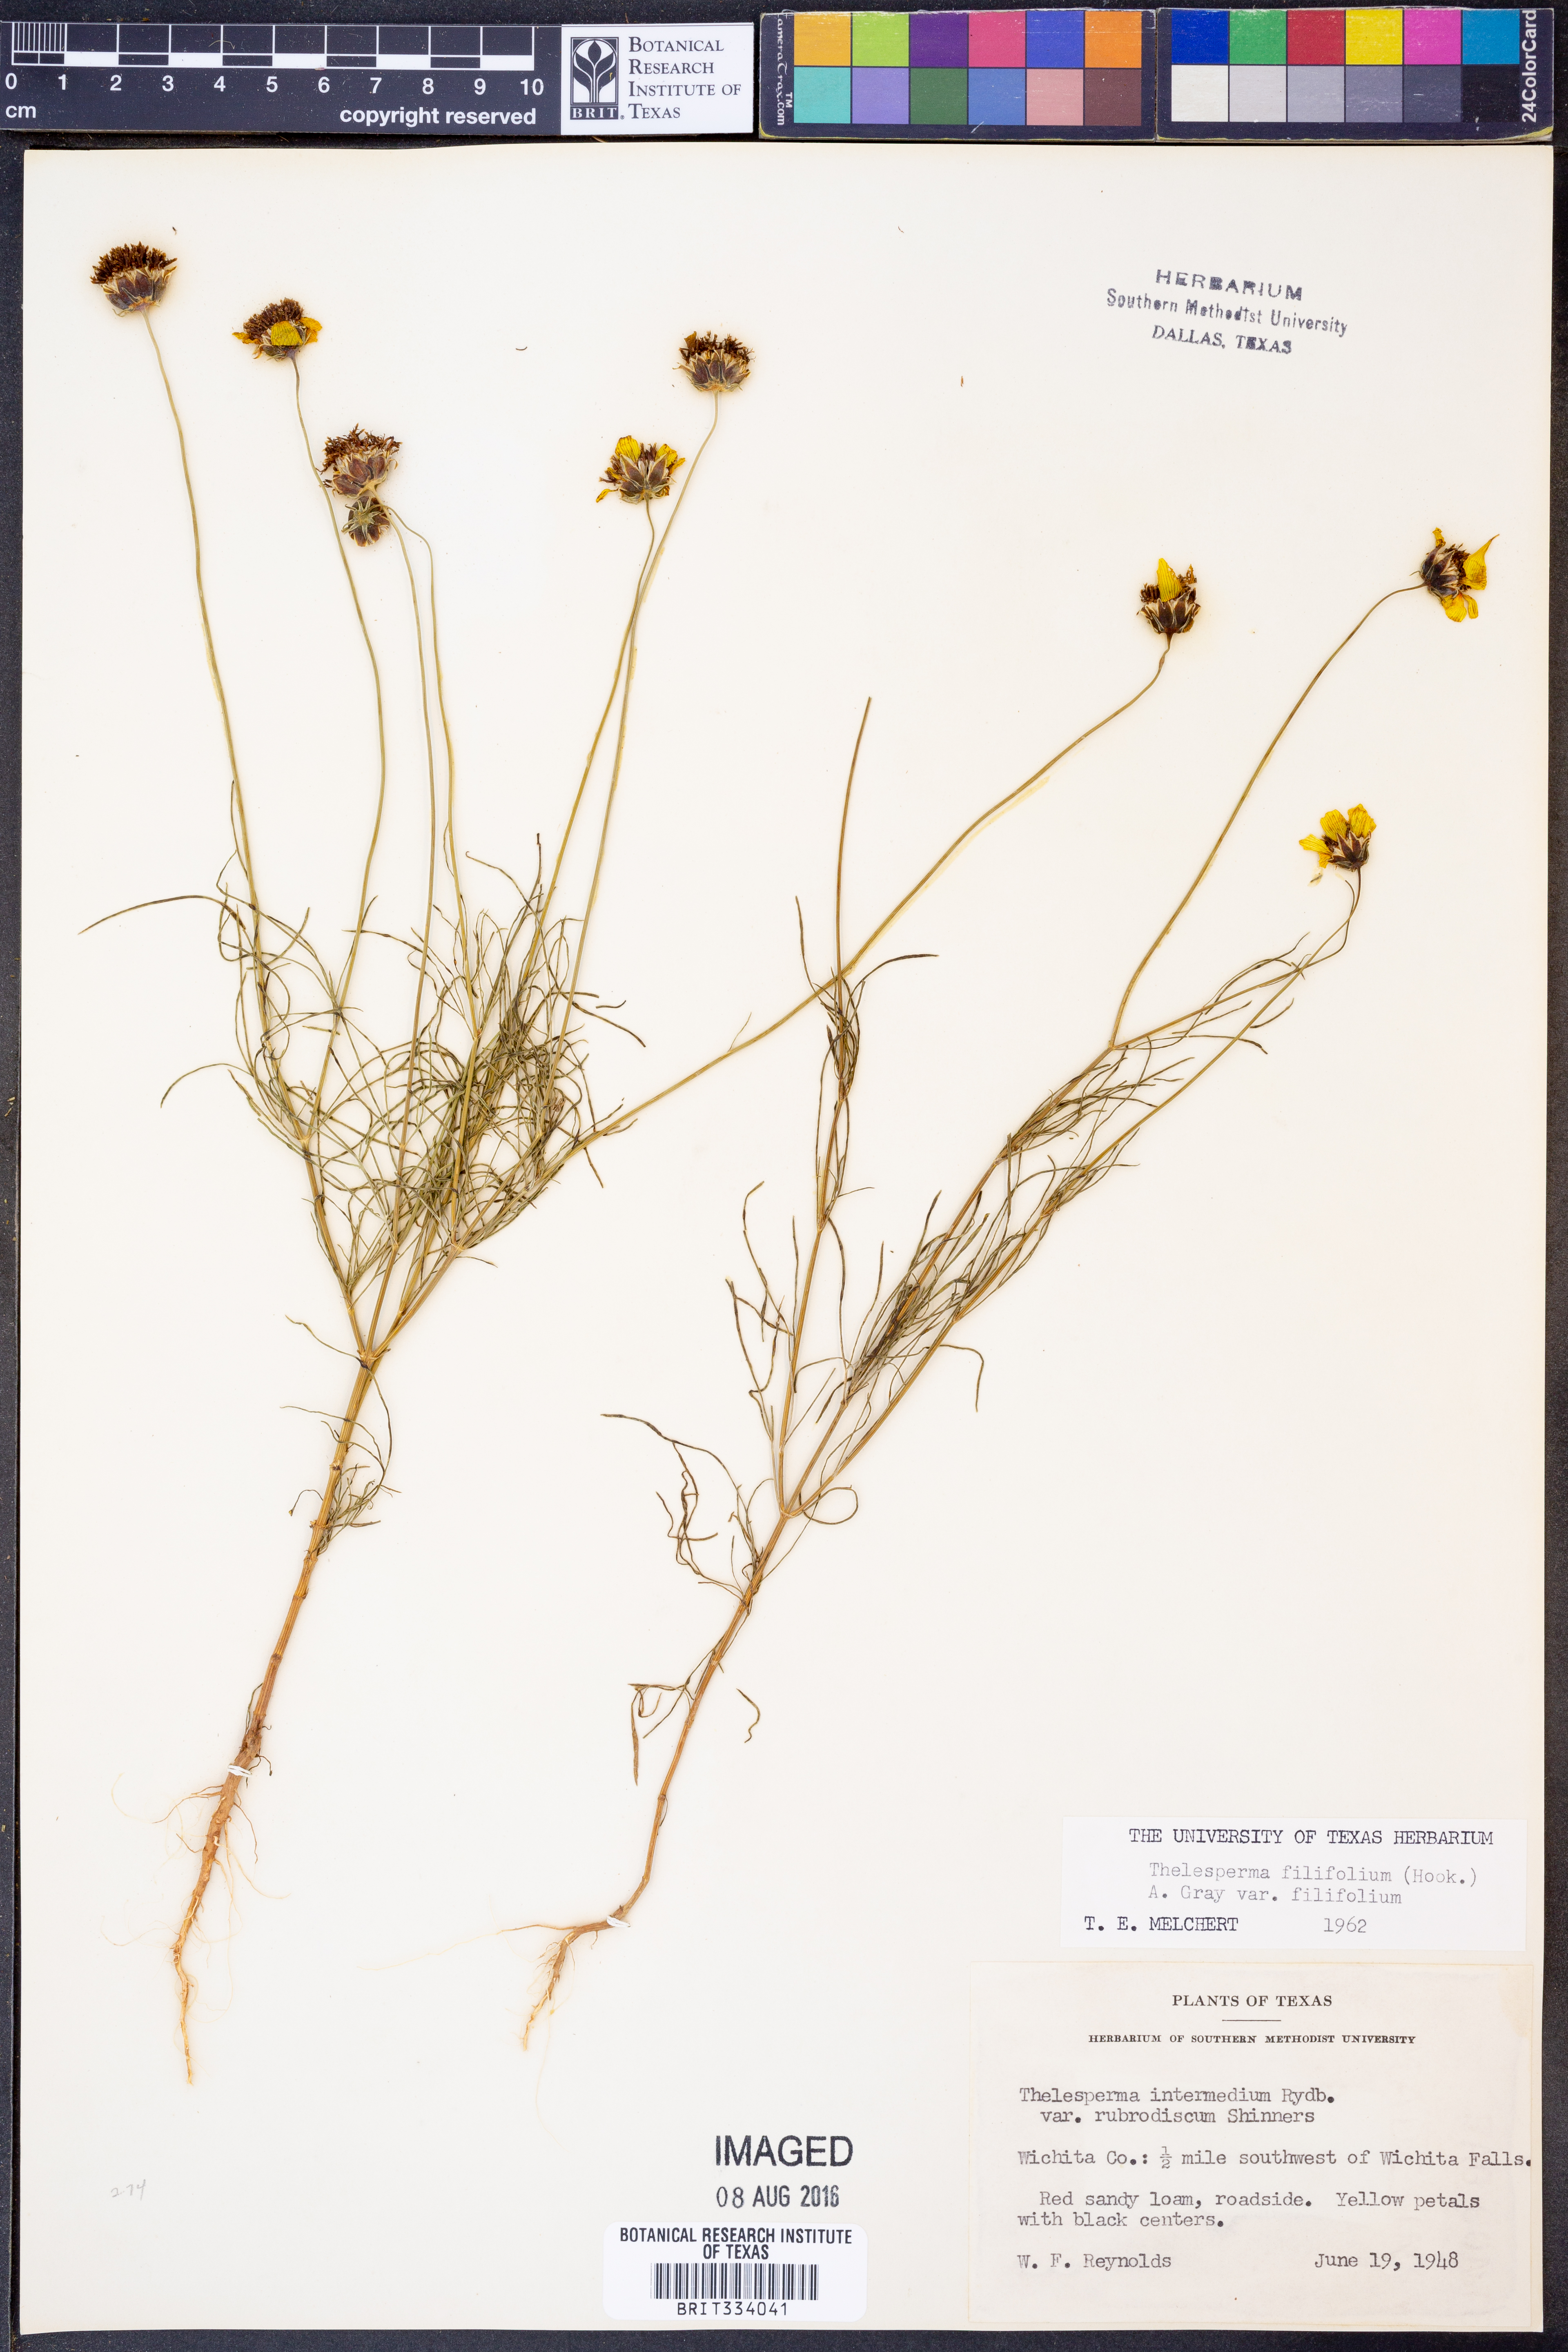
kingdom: Plantae
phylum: Tracheophyta
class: Magnoliopsida
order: Asterales
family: Asteraceae
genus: Thelesperma
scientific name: Thelesperma filifolium
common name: Stiff greenthread
